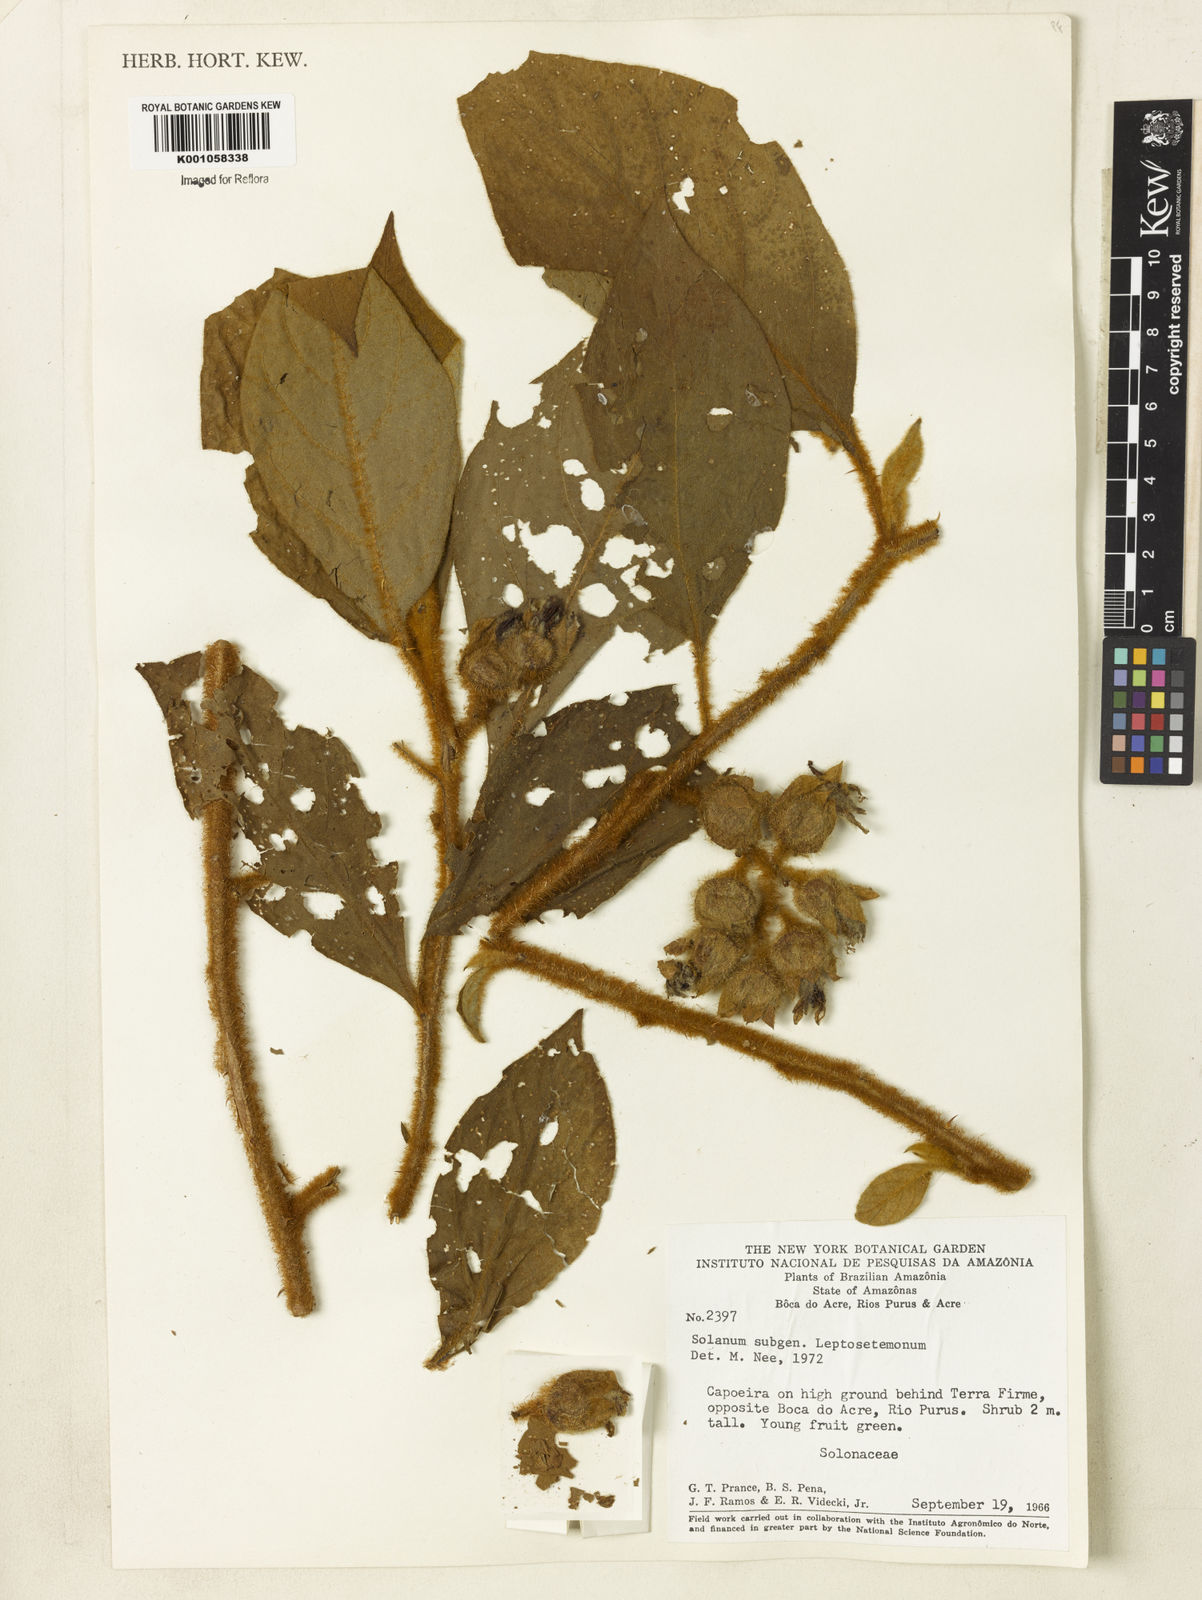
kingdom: Plantae
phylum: Tracheophyta
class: Magnoliopsida
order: Solanales
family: Solanaceae
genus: Solanum
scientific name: Solanum
